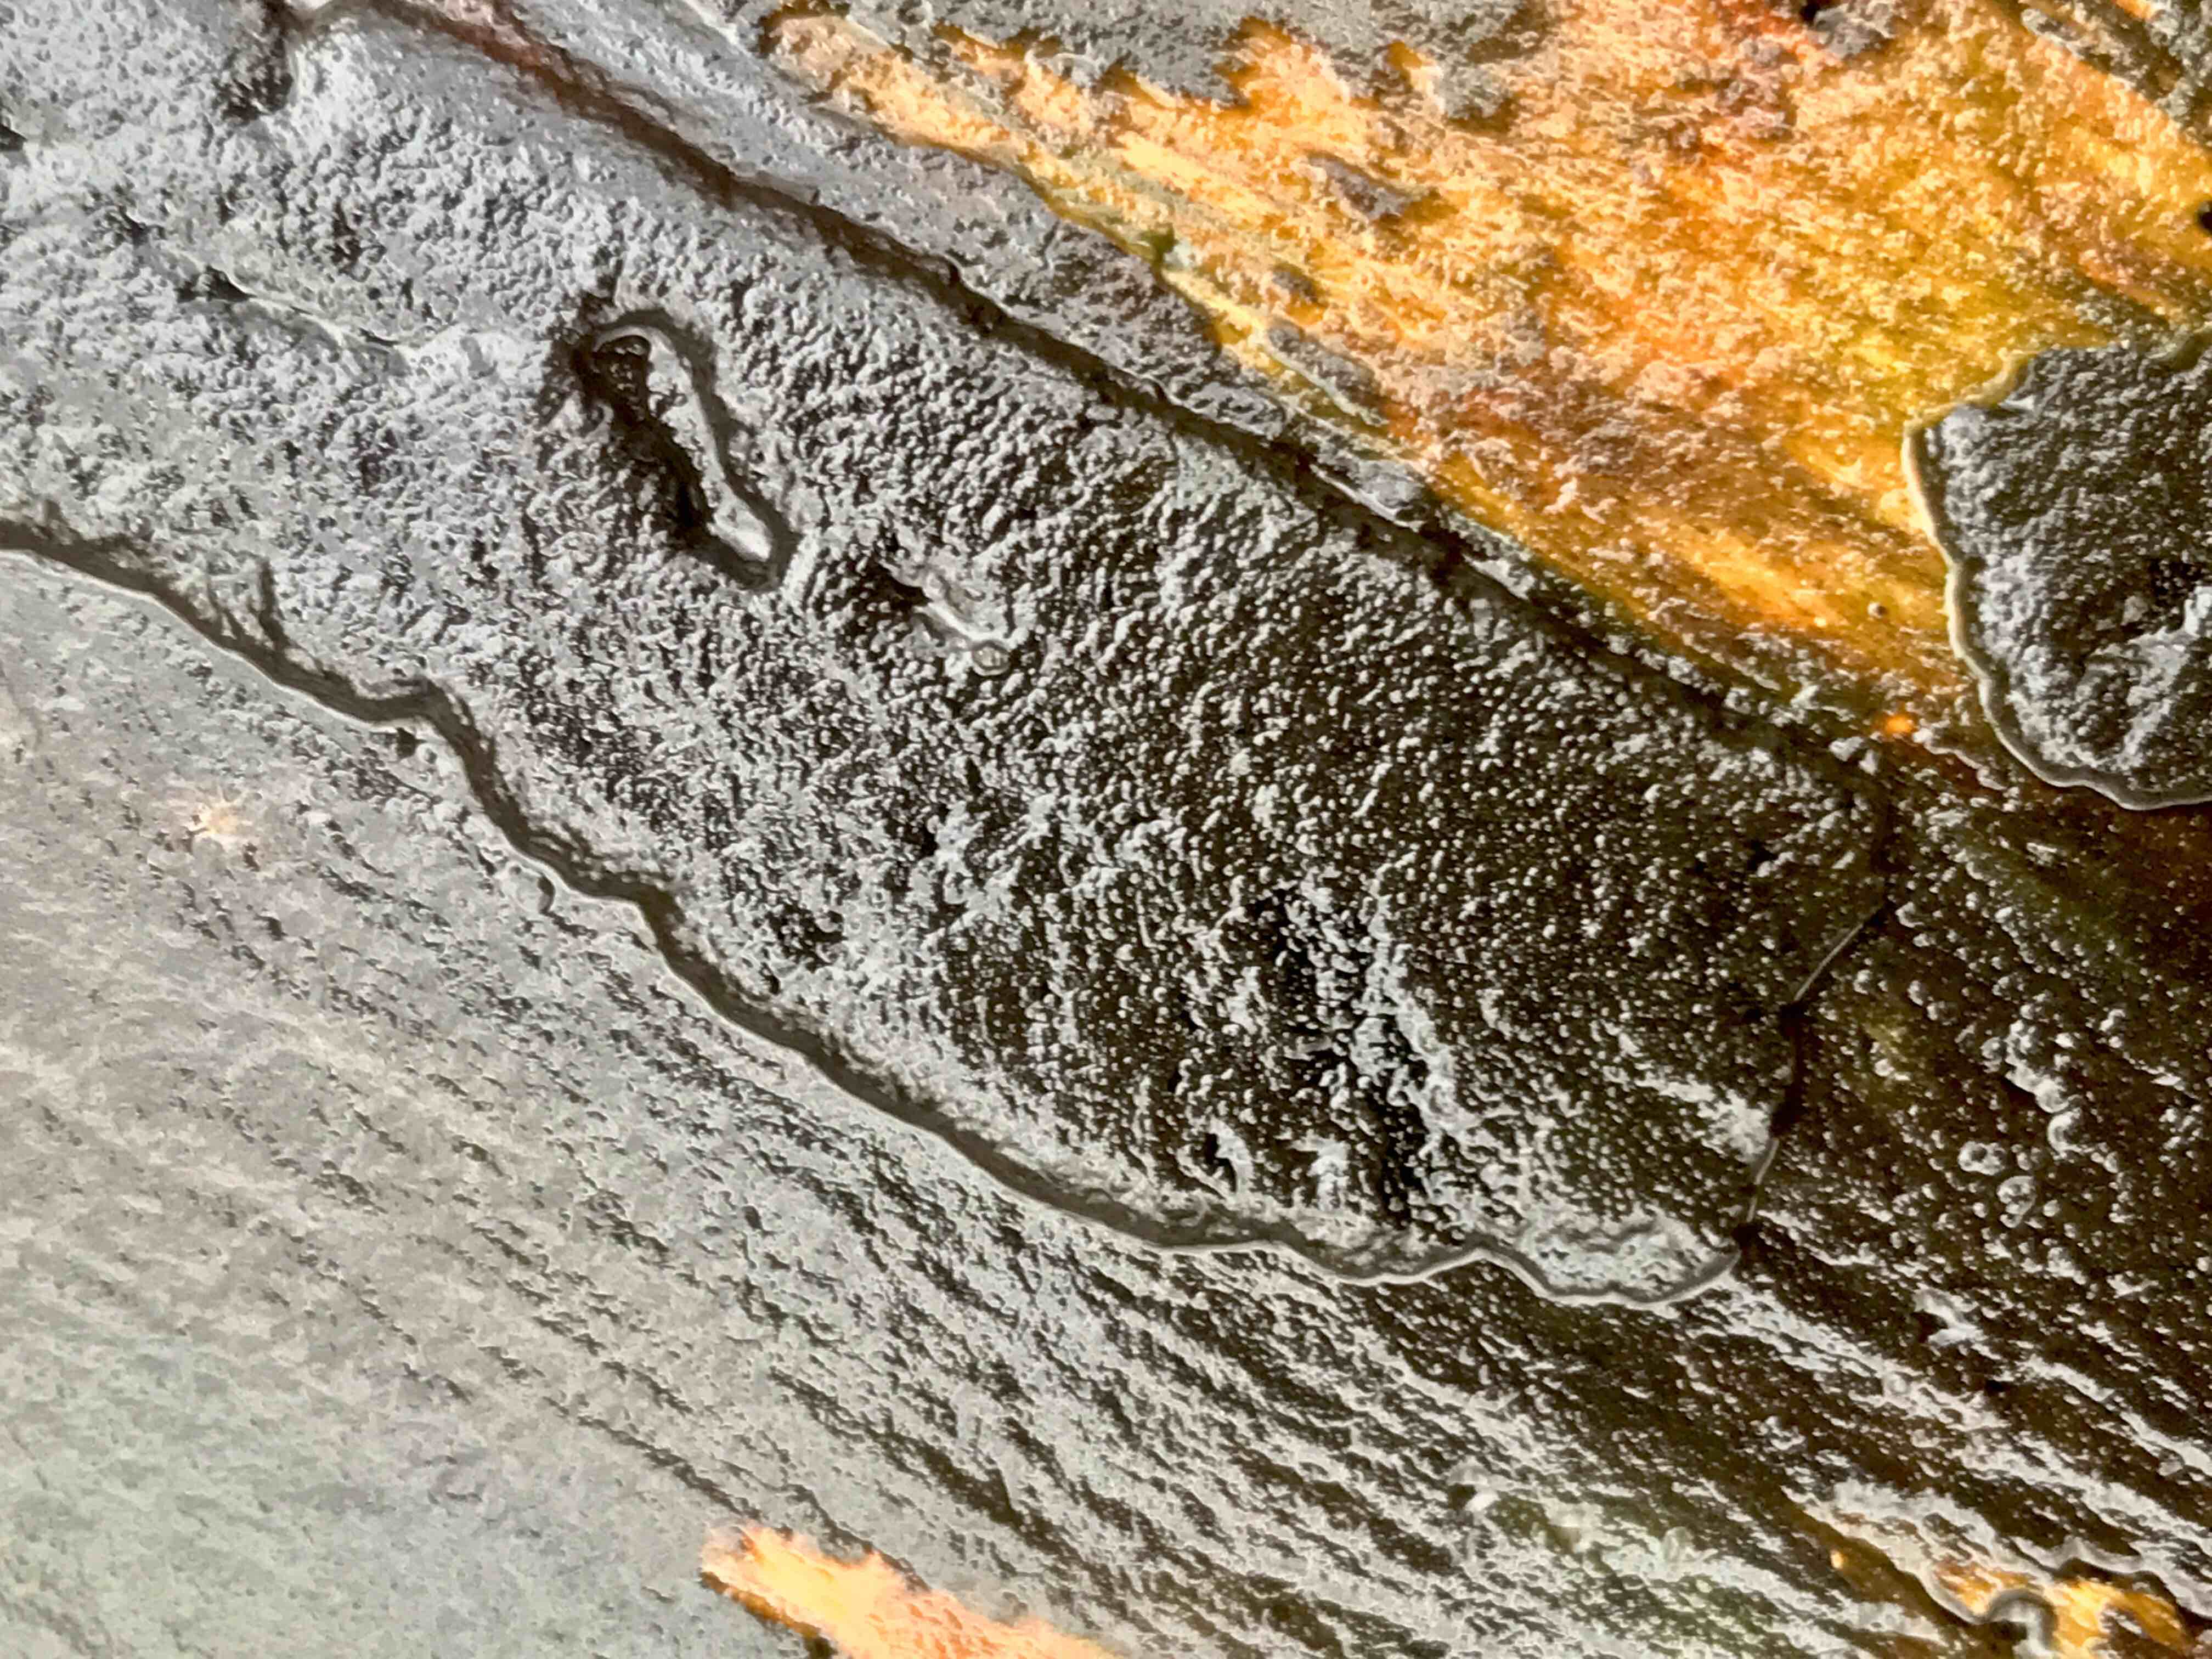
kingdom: Fungi
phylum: Ascomycota
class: Sordariomycetes
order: Xylariales
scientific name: Xylariales
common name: stødsvampordenen
